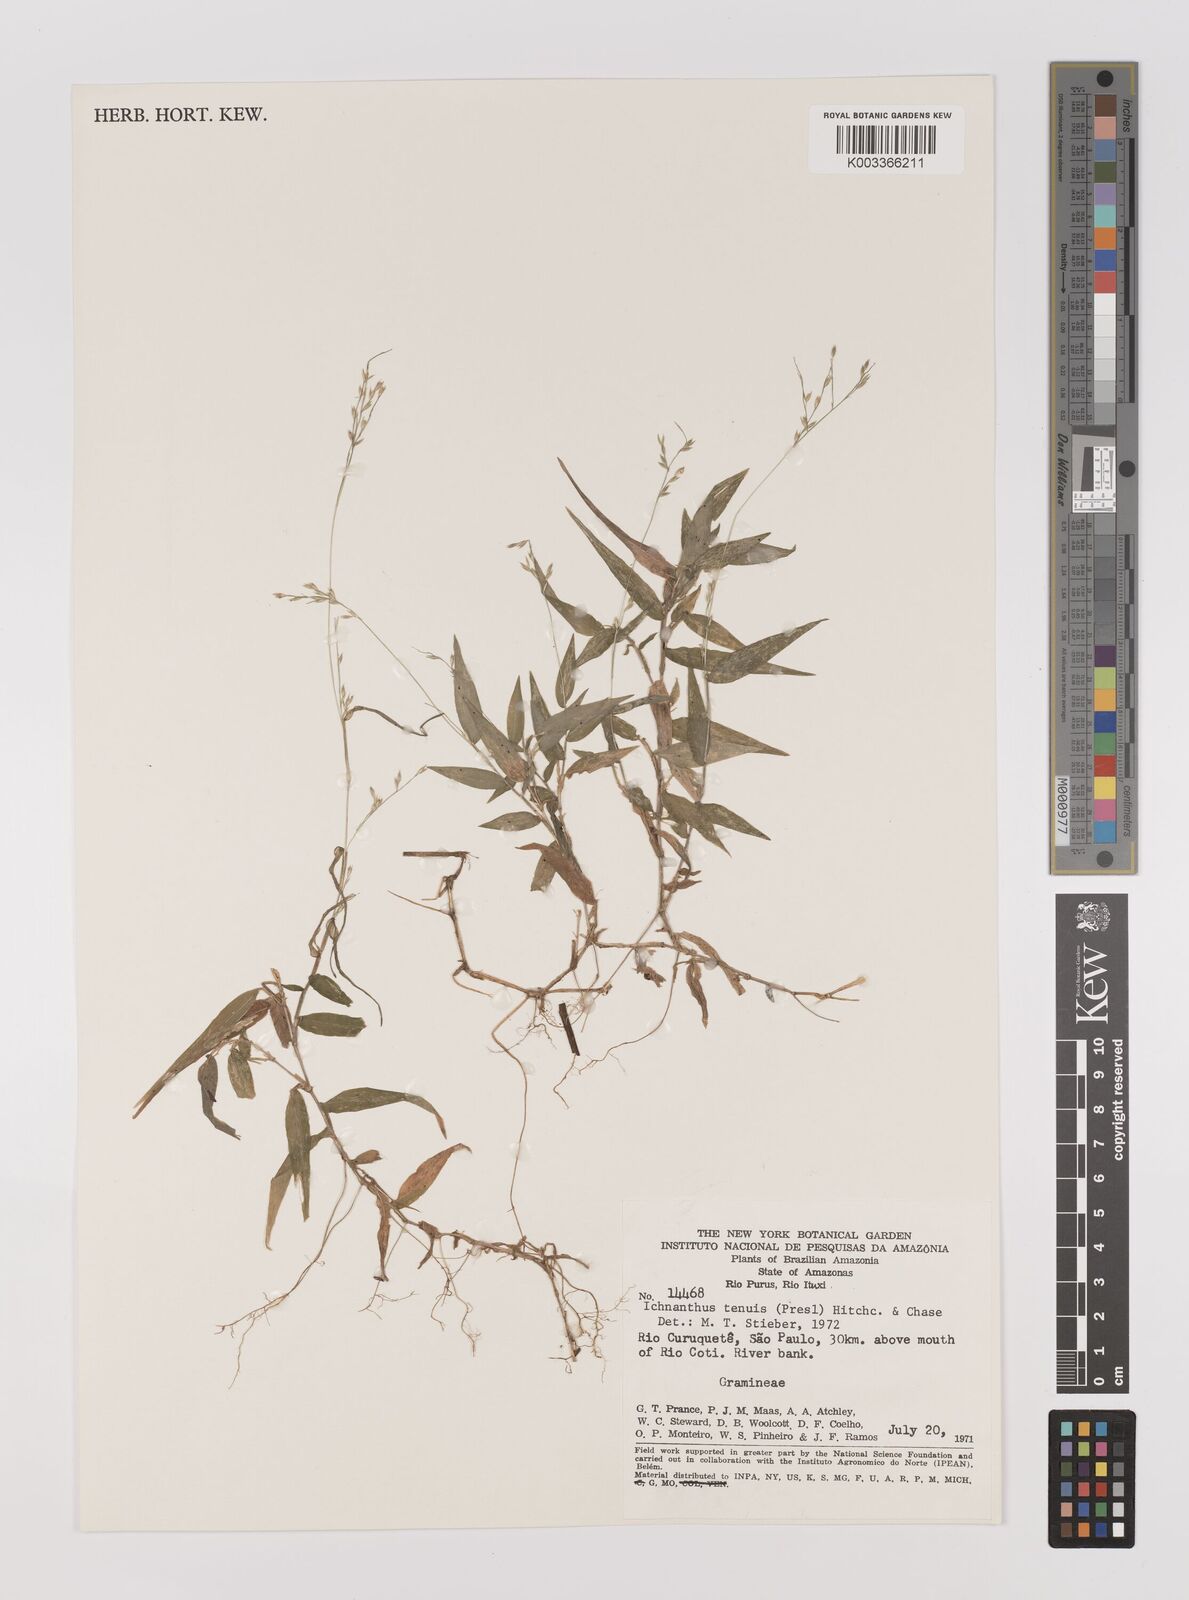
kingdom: Plantae
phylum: Tracheophyta
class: Liliopsida
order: Poales
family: Poaceae
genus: Ichnanthus
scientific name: Ichnanthus pallens
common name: Water grass
